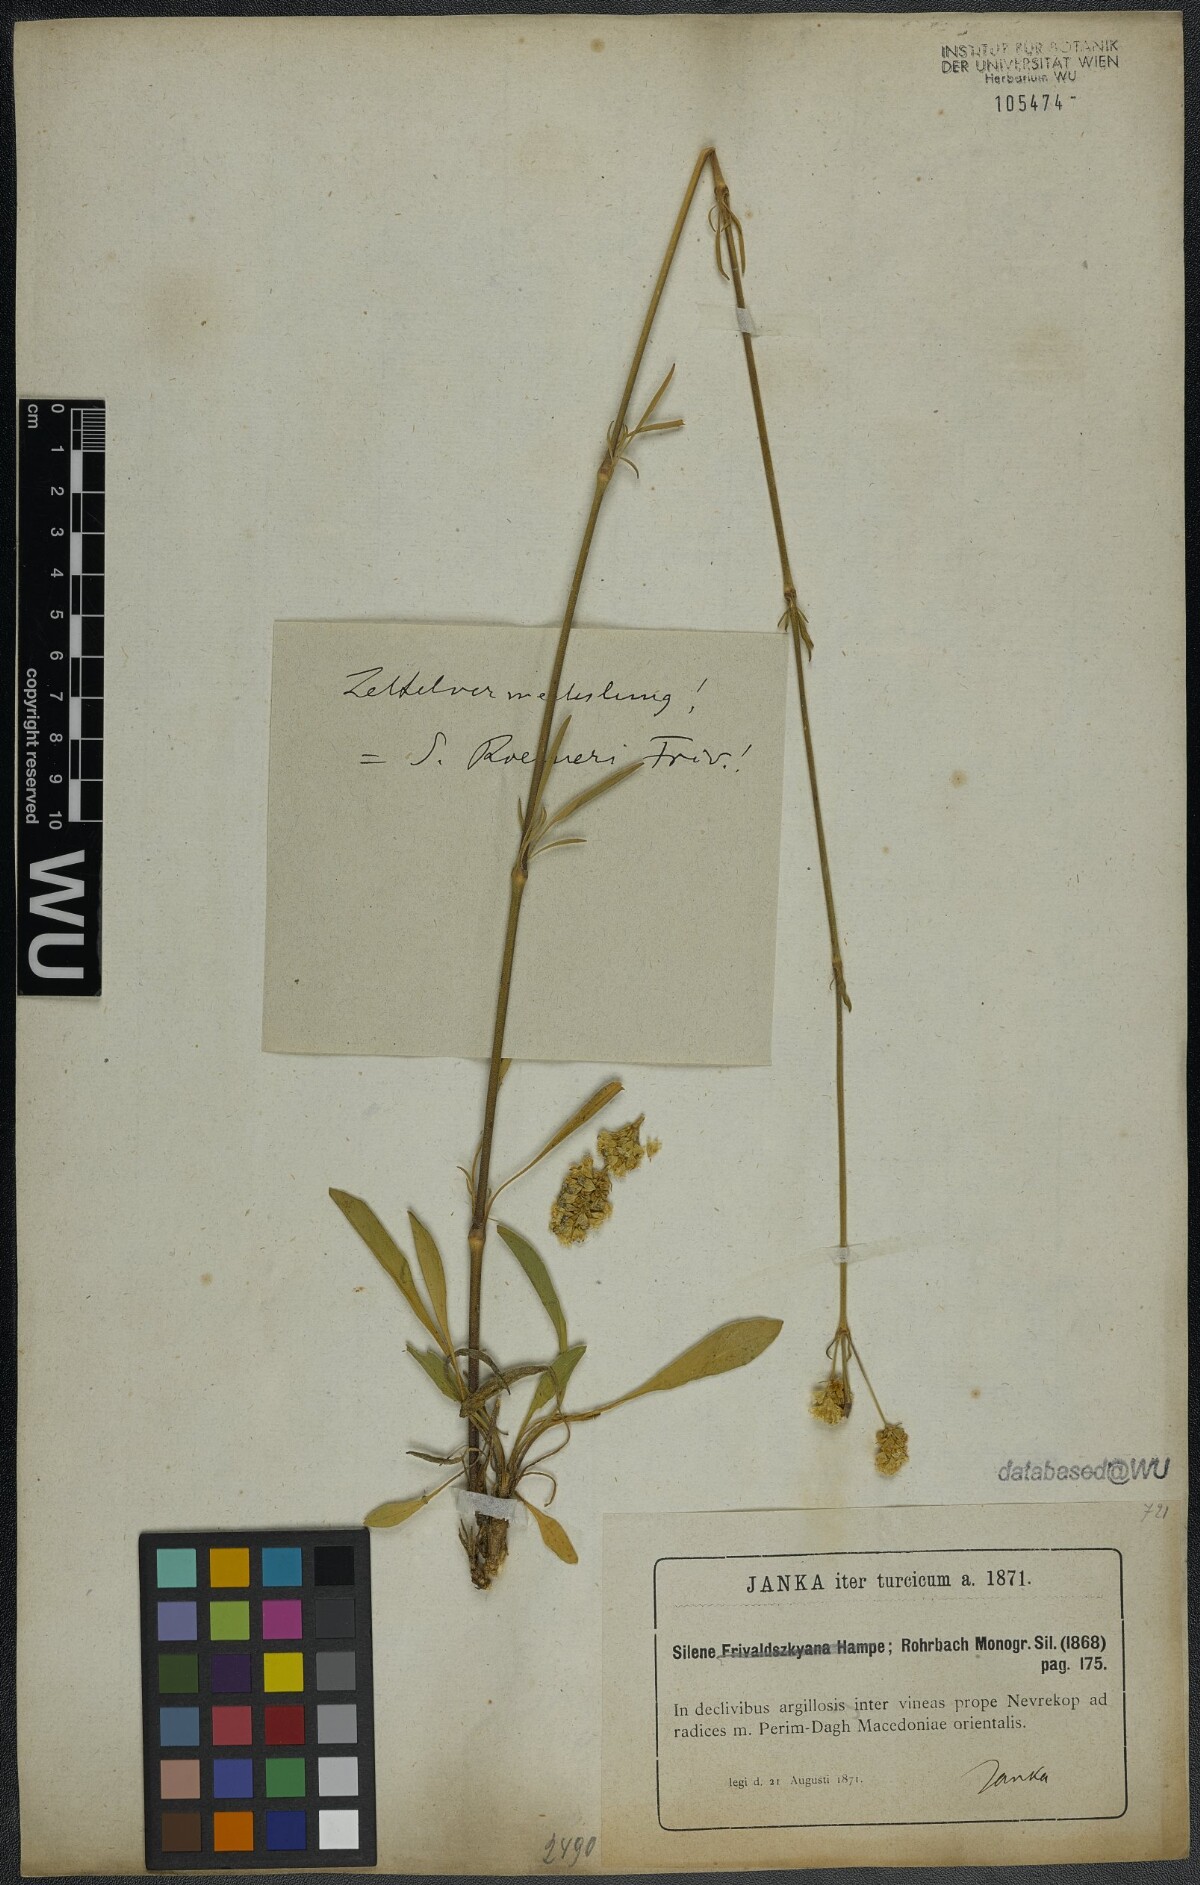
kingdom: Plantae
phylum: Tracheophyta
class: Magnoliopsida
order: Caryophyllales
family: Caryophyllaceae
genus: Silene
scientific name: Silene roemeri
